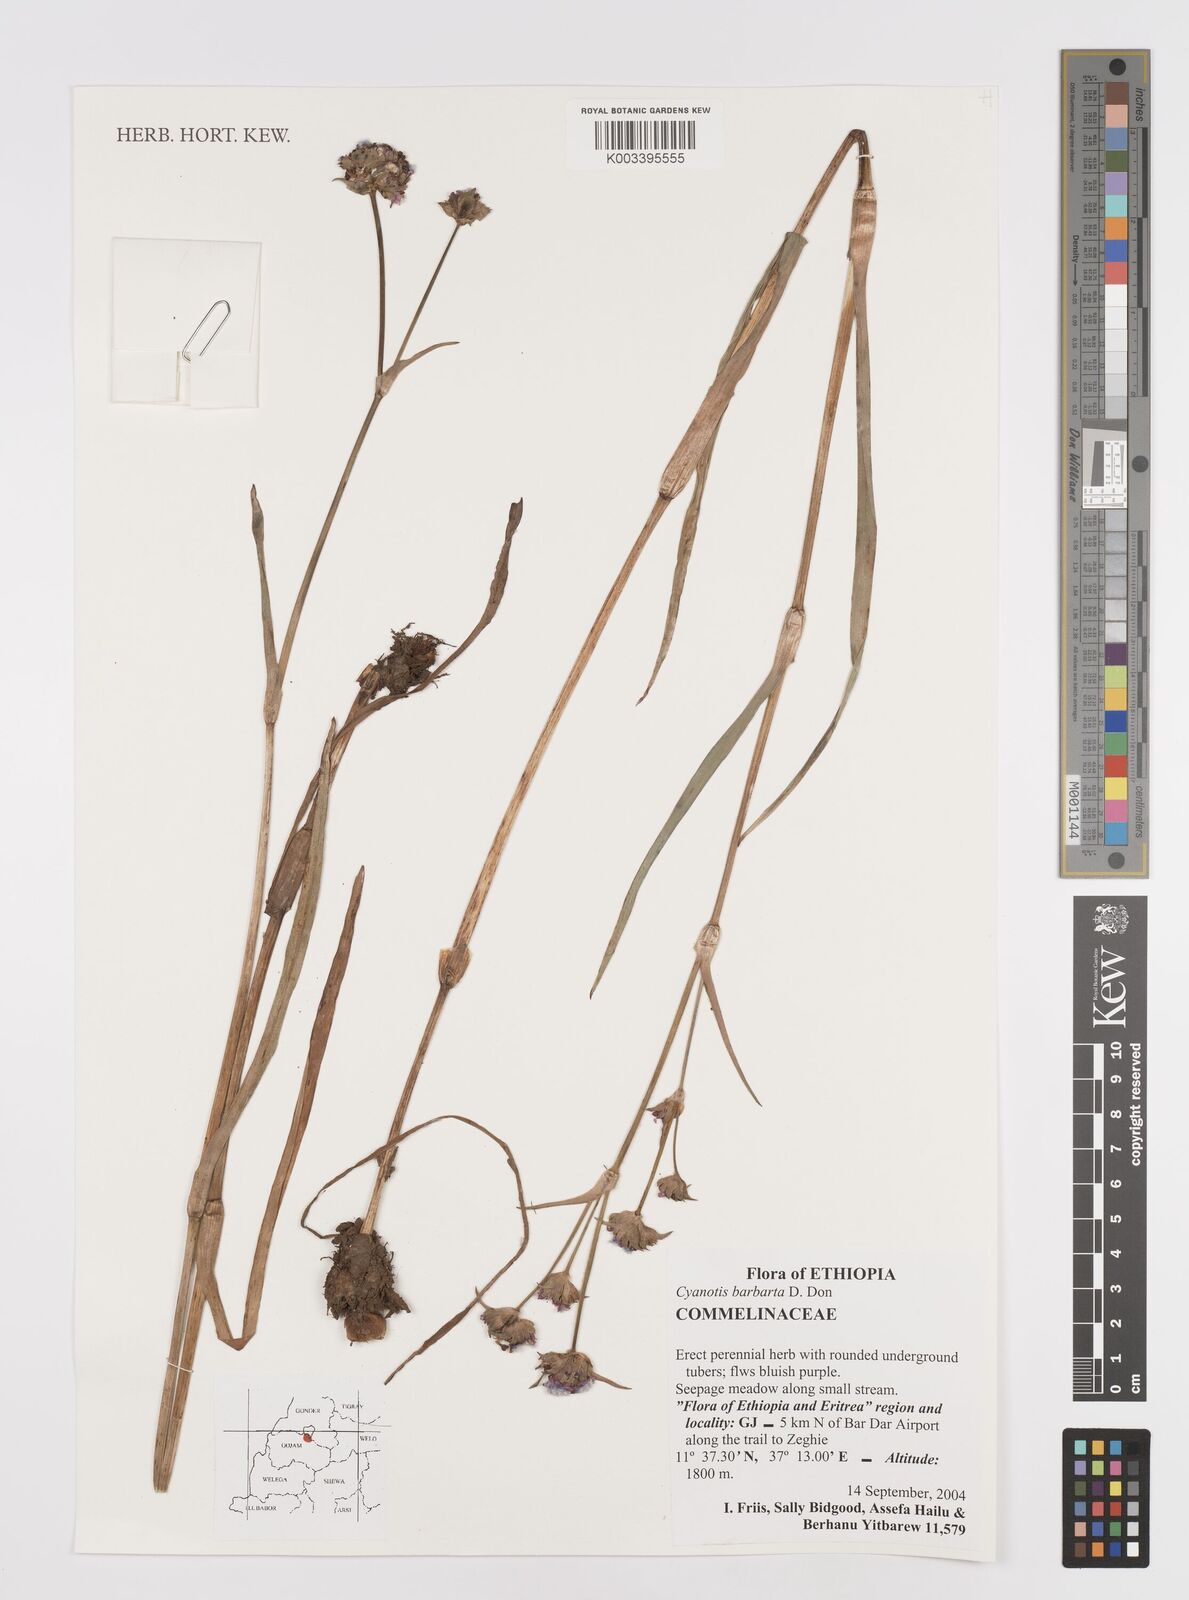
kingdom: Plantae
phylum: Tracheophyta
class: Liliopsida
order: Commelinales
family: Commelinaceae
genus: Cyanotis
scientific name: Cyanotis vaga
